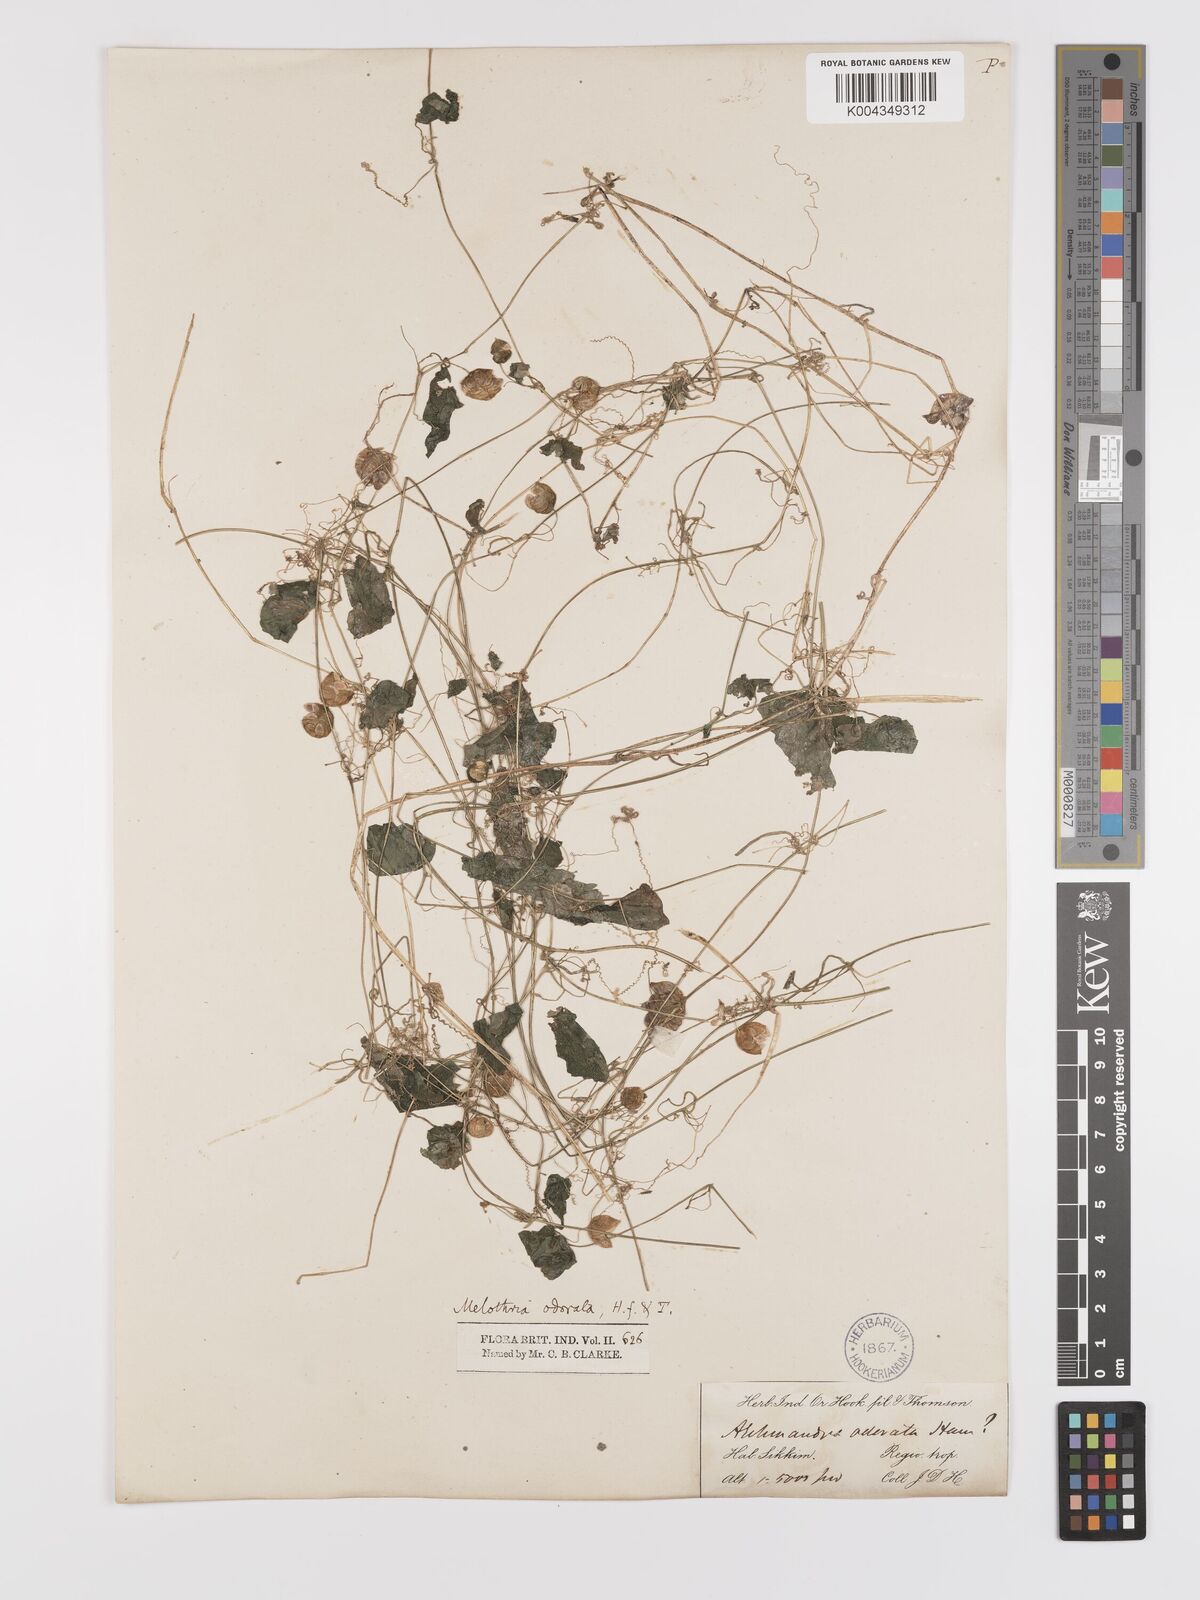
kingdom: Plantae
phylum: Tracheophyta
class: Magnoliopsida
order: Cucurbitales
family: Cucurbitaceae
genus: Zehneria
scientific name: Zehneria odorata
